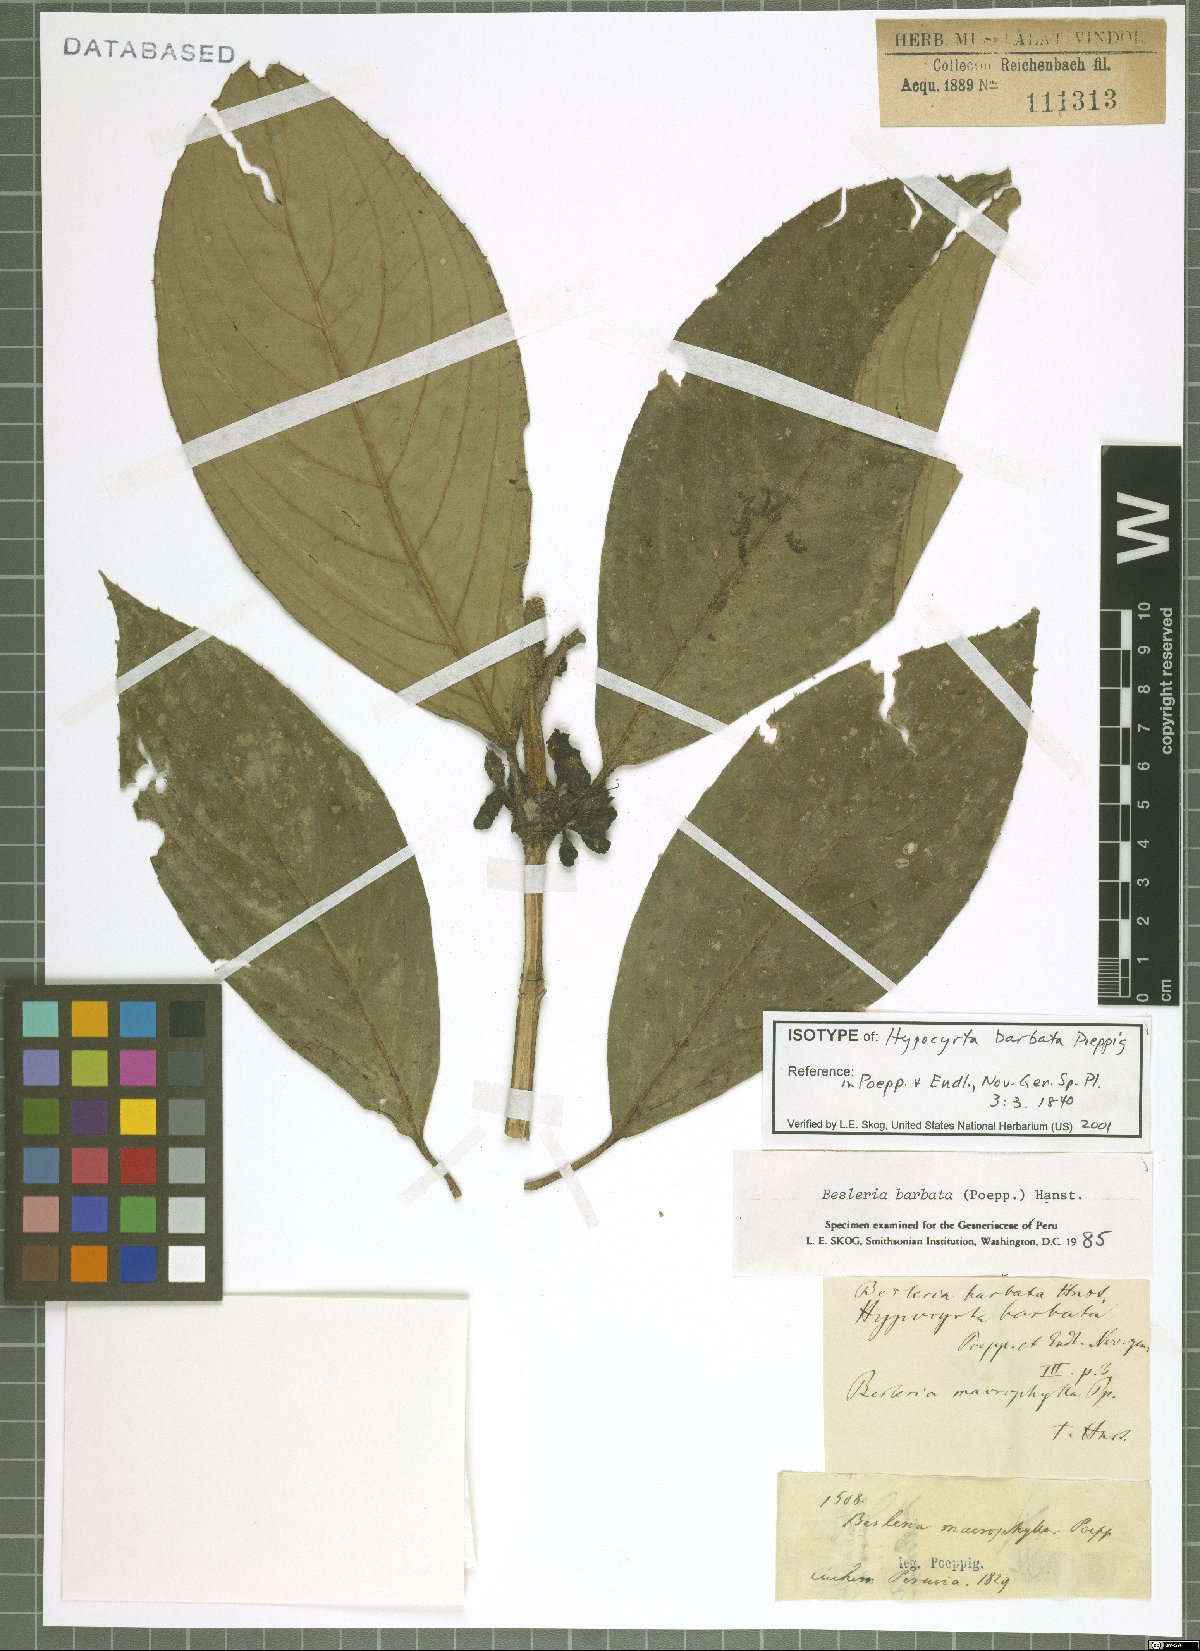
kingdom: Plantae
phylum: Tracheophyta
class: Magnoliopsida
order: Lamiales
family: Gesneriaceae
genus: Besleria
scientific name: Besleria barbata
